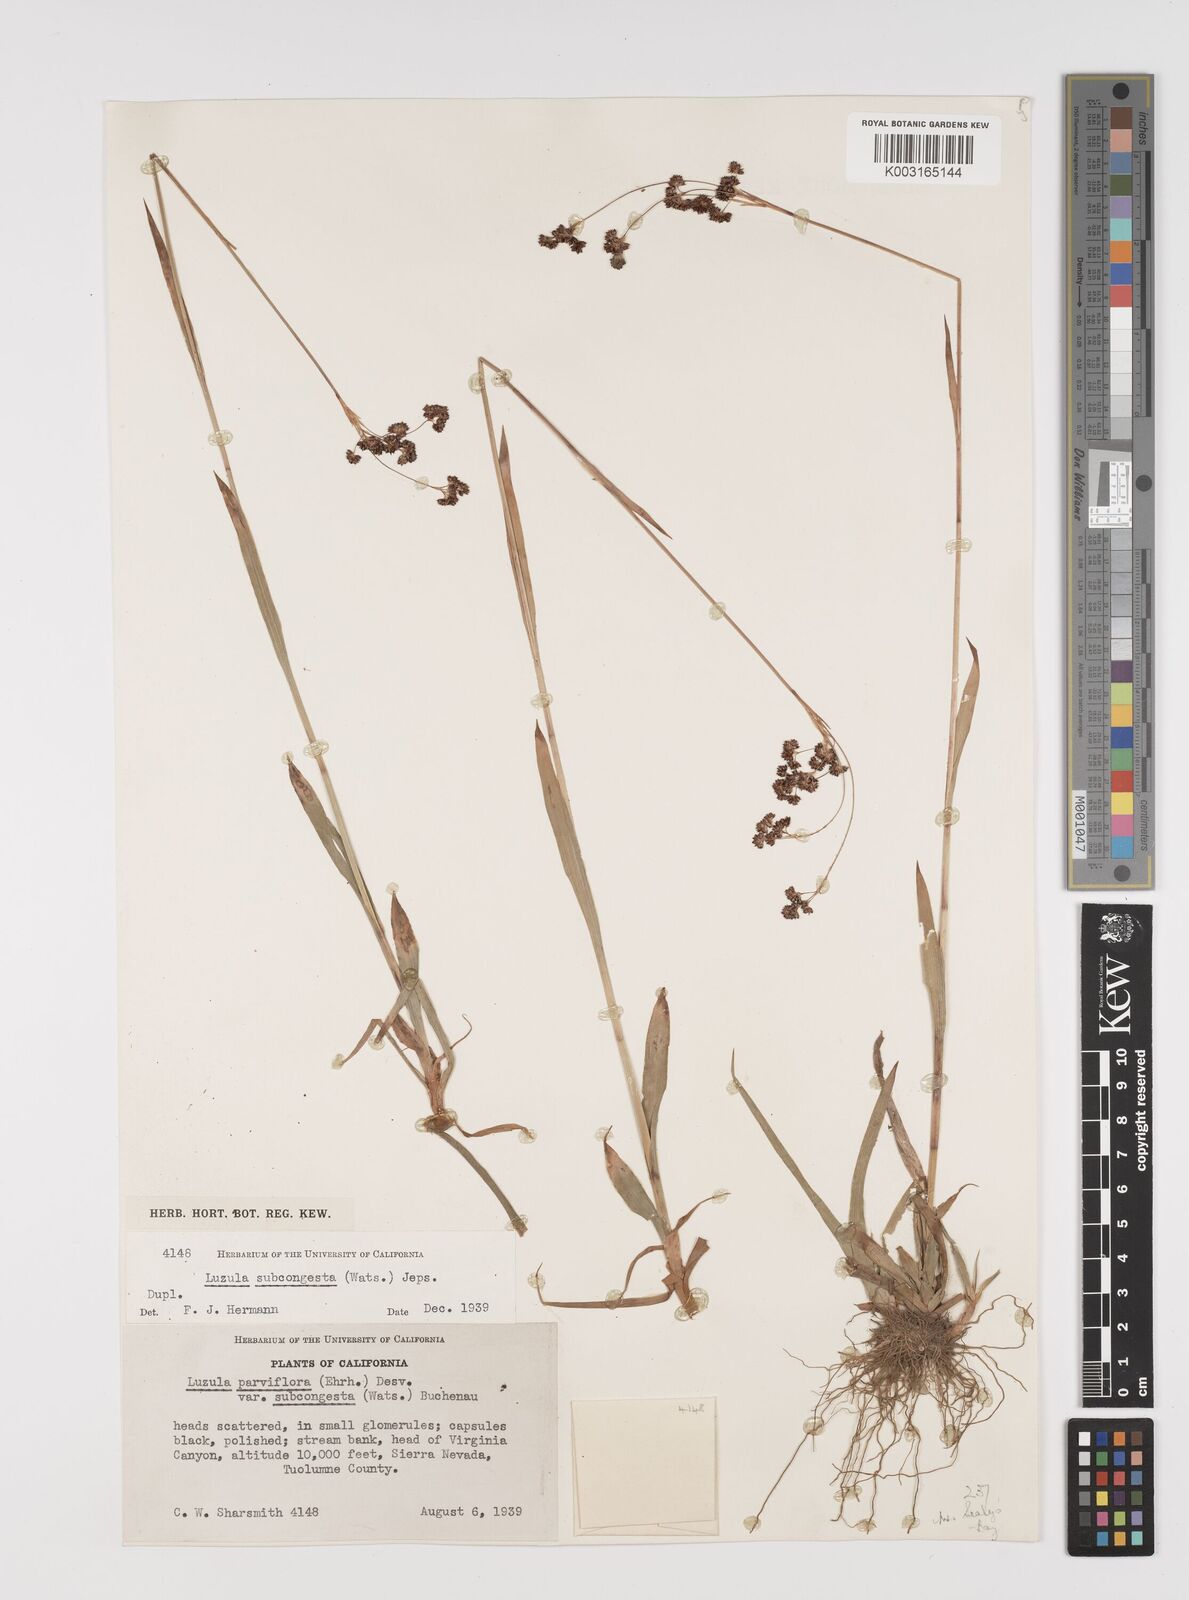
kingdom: Plantae
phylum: Tracheophyta
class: Liliopsida
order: Poales
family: Juncaceae
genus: Luzula
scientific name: Luzula subcongesta
